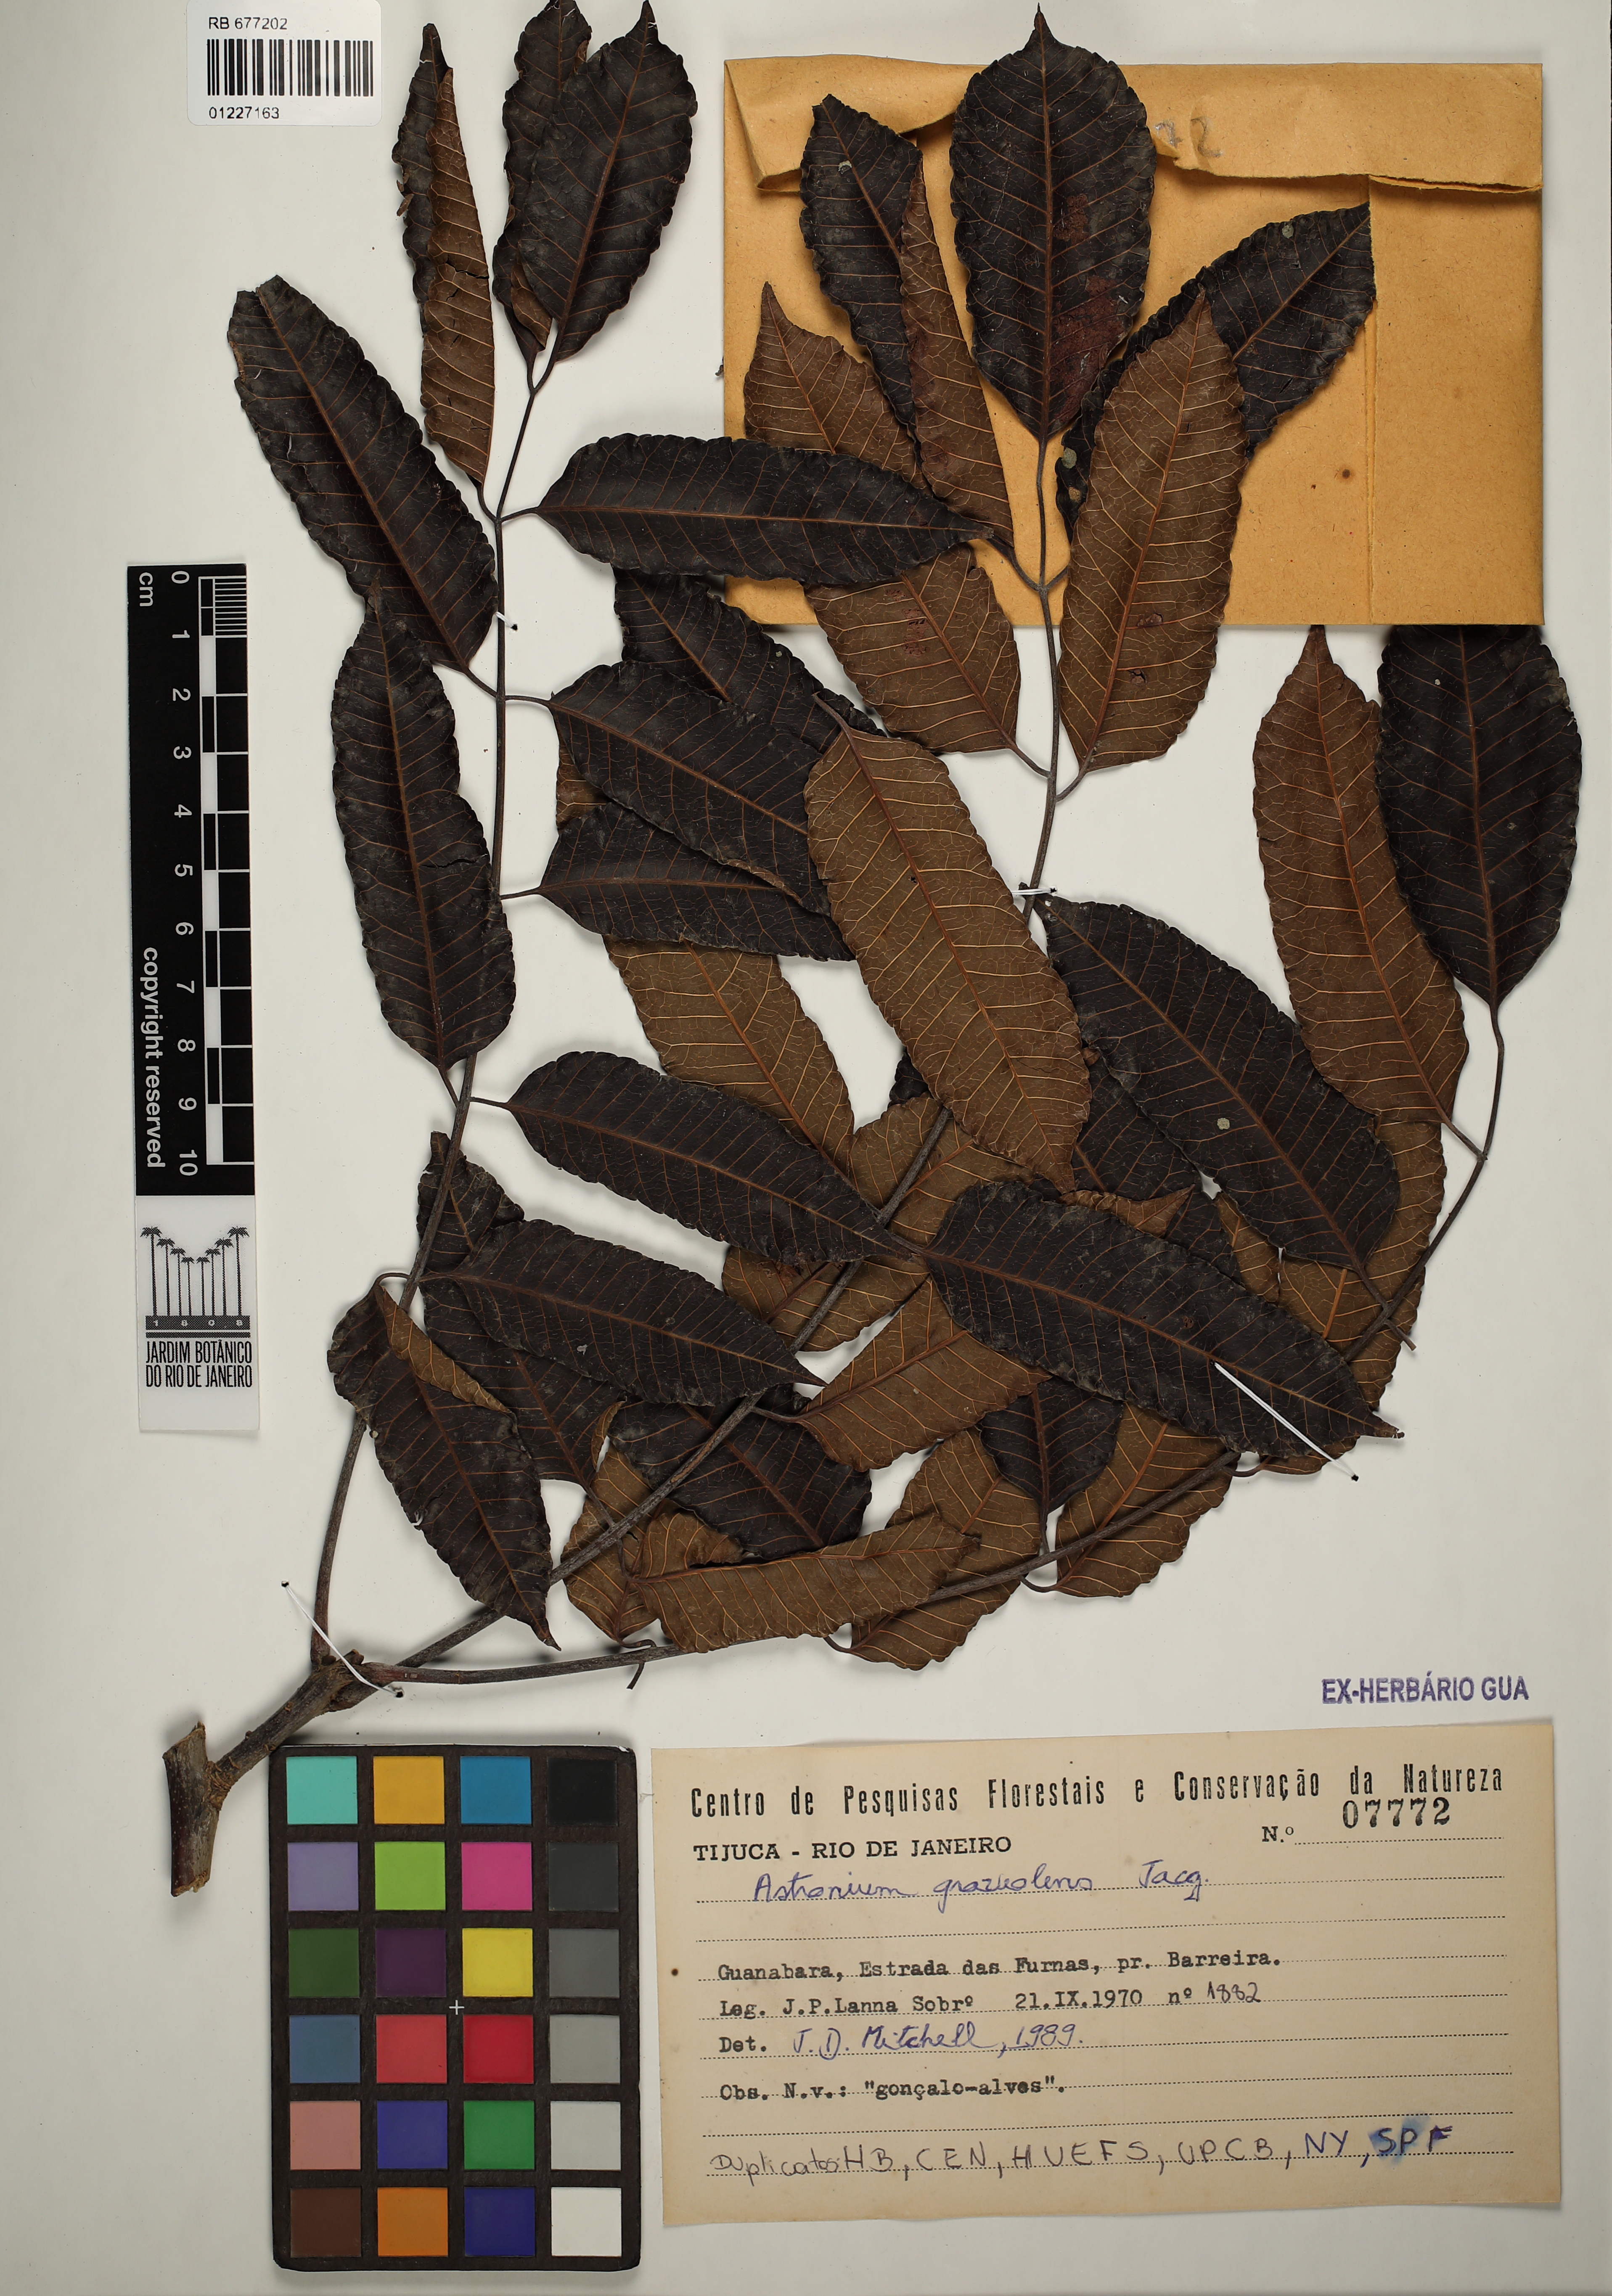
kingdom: Plantae
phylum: Tracheophyta
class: Magnoliopsida
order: Sapindales
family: Anacardiaceae
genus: Astronium
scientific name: Astronium graveolens
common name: Glassywood
